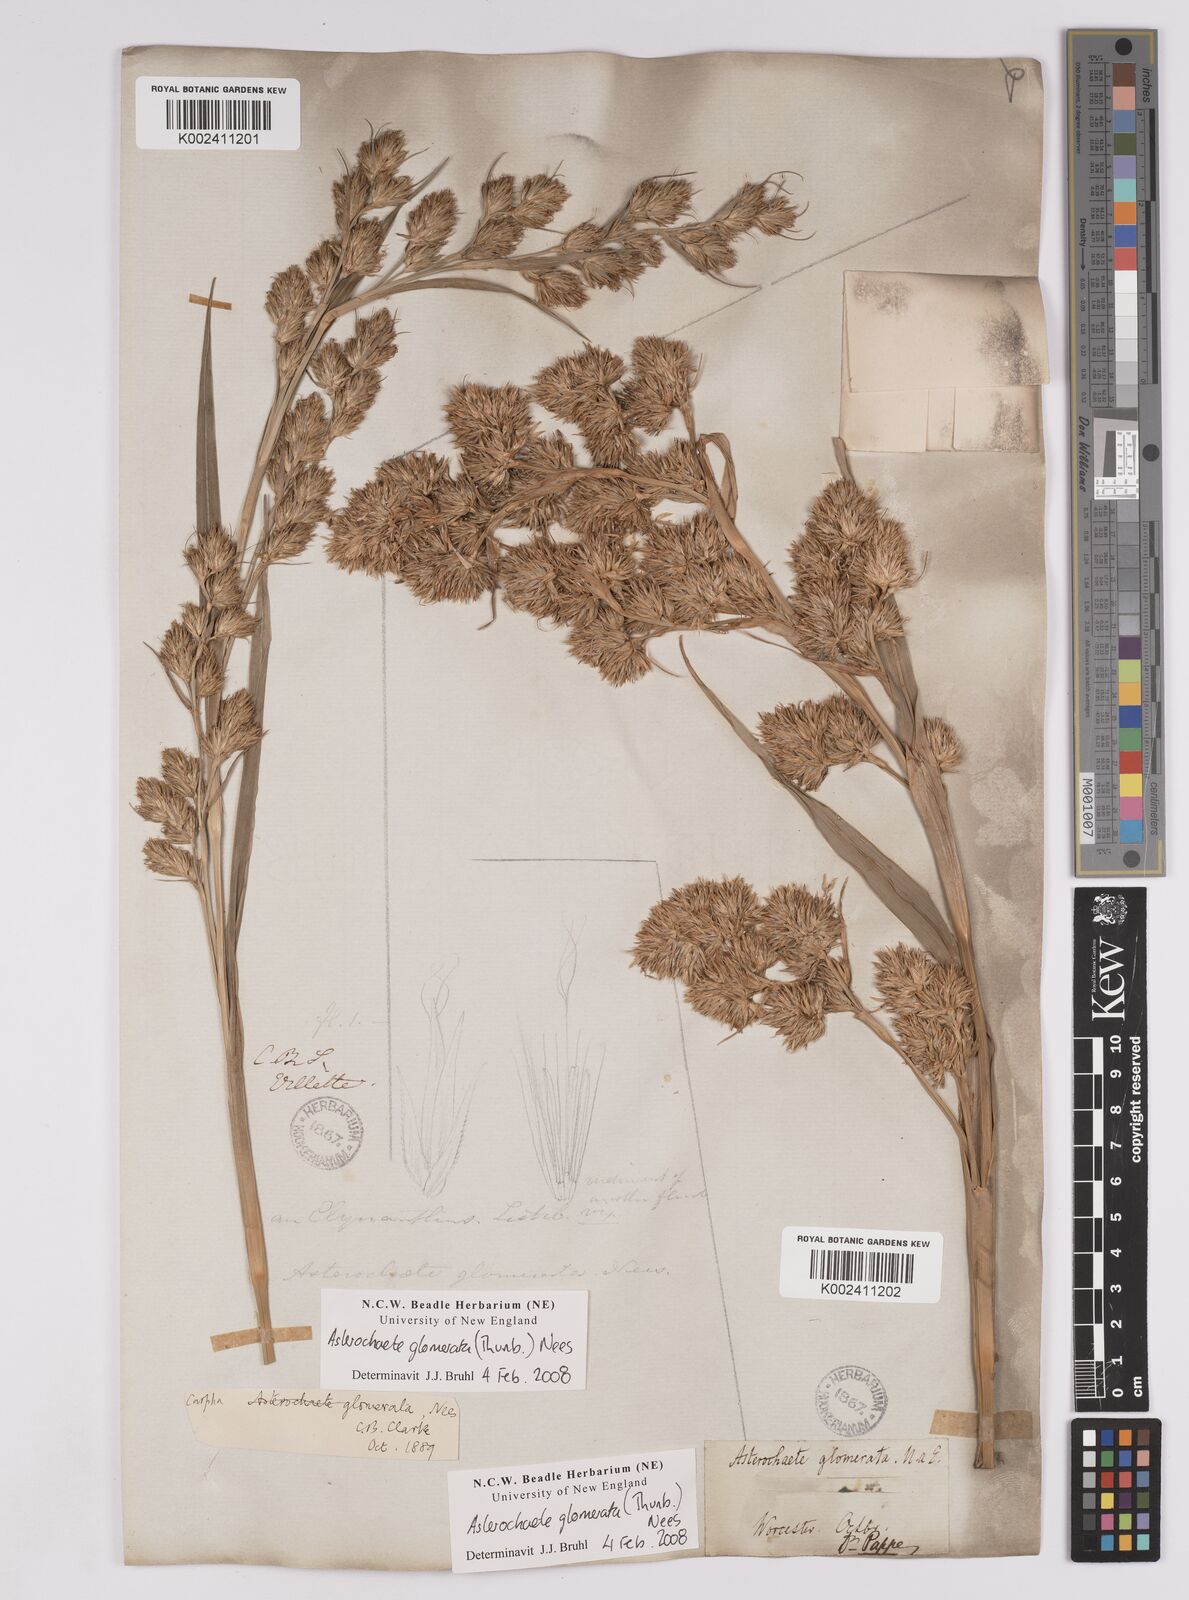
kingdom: Plantae
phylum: Tracheophyta
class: Liliopsida
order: Poales
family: Cyperaceae
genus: Carpha
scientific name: Carpha
